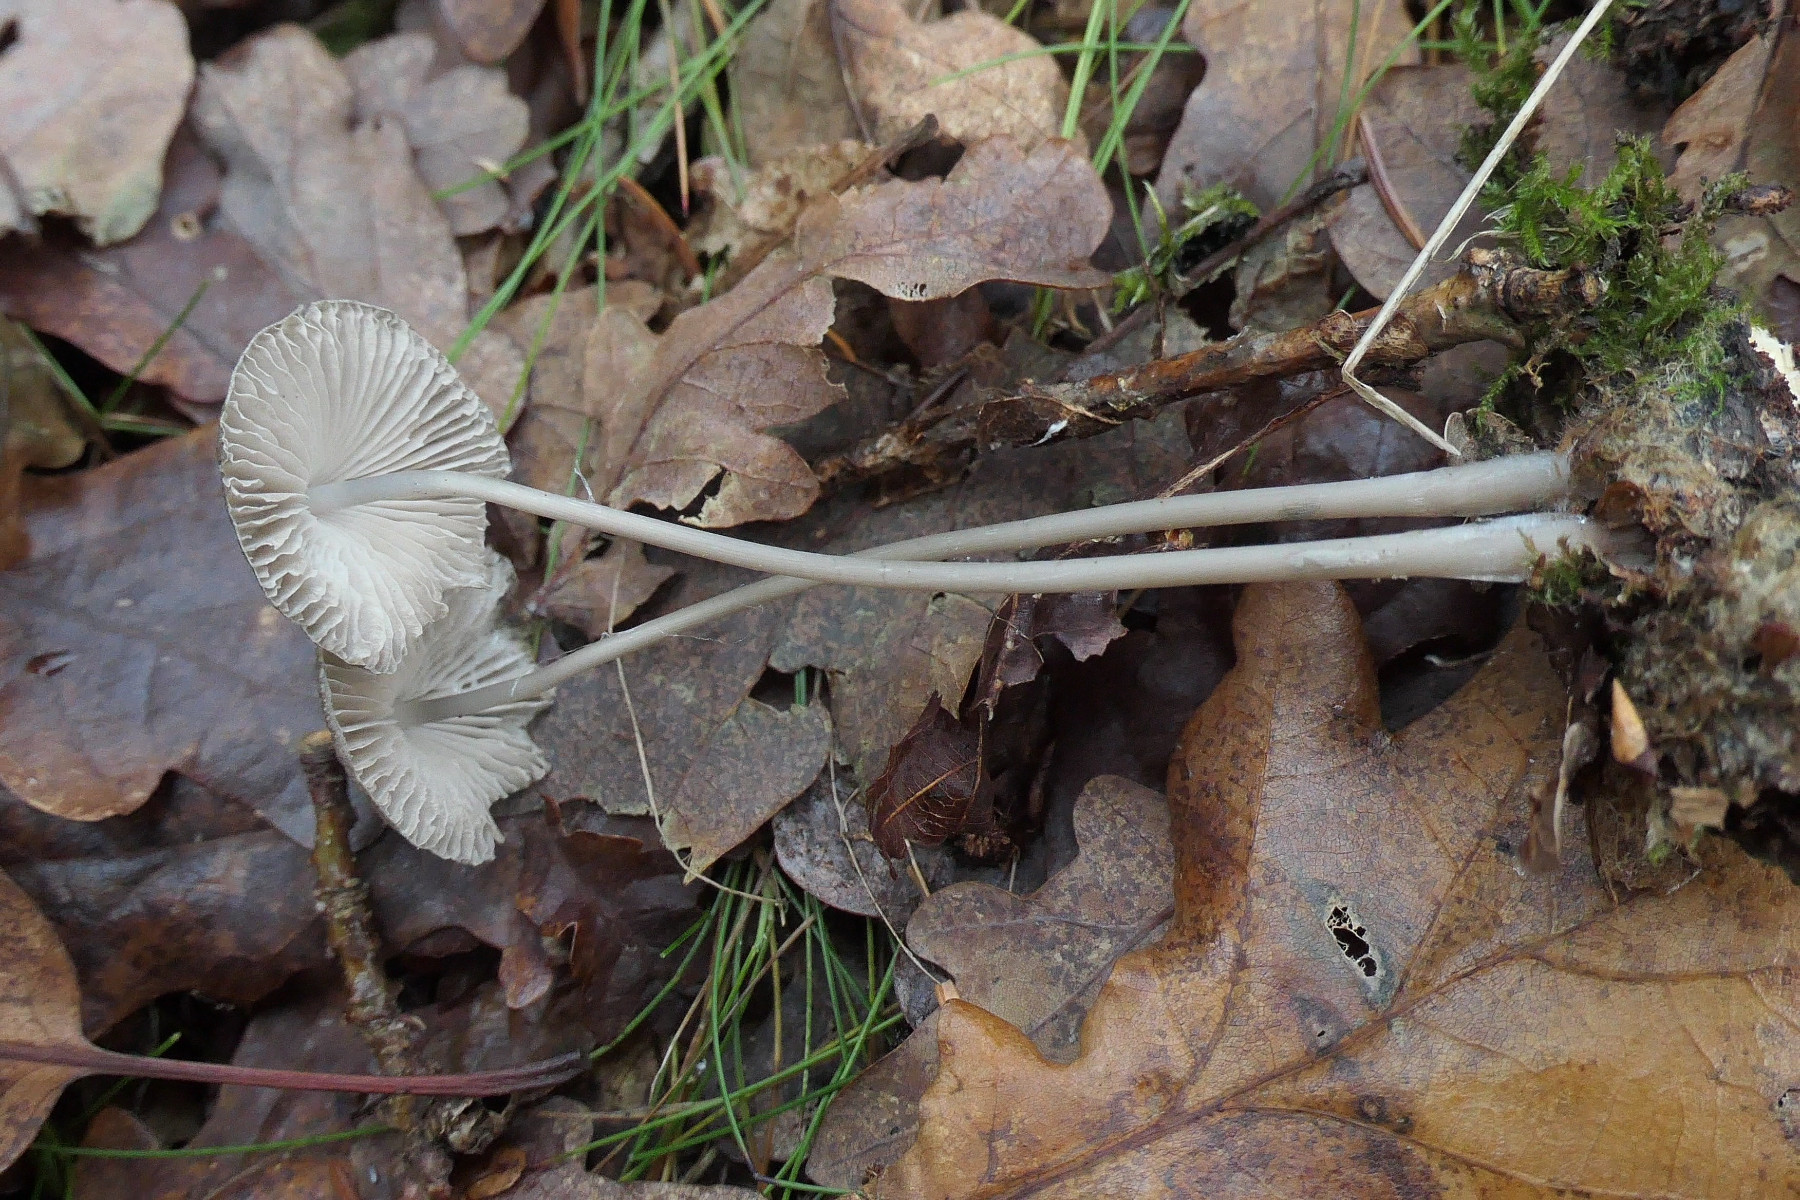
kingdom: Fungi
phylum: Basidiomycota
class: Agaricomycetes
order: Agaricales
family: Mycenaceae
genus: Mycena
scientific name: Mycena polygramma
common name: mangestribet huesvamp
